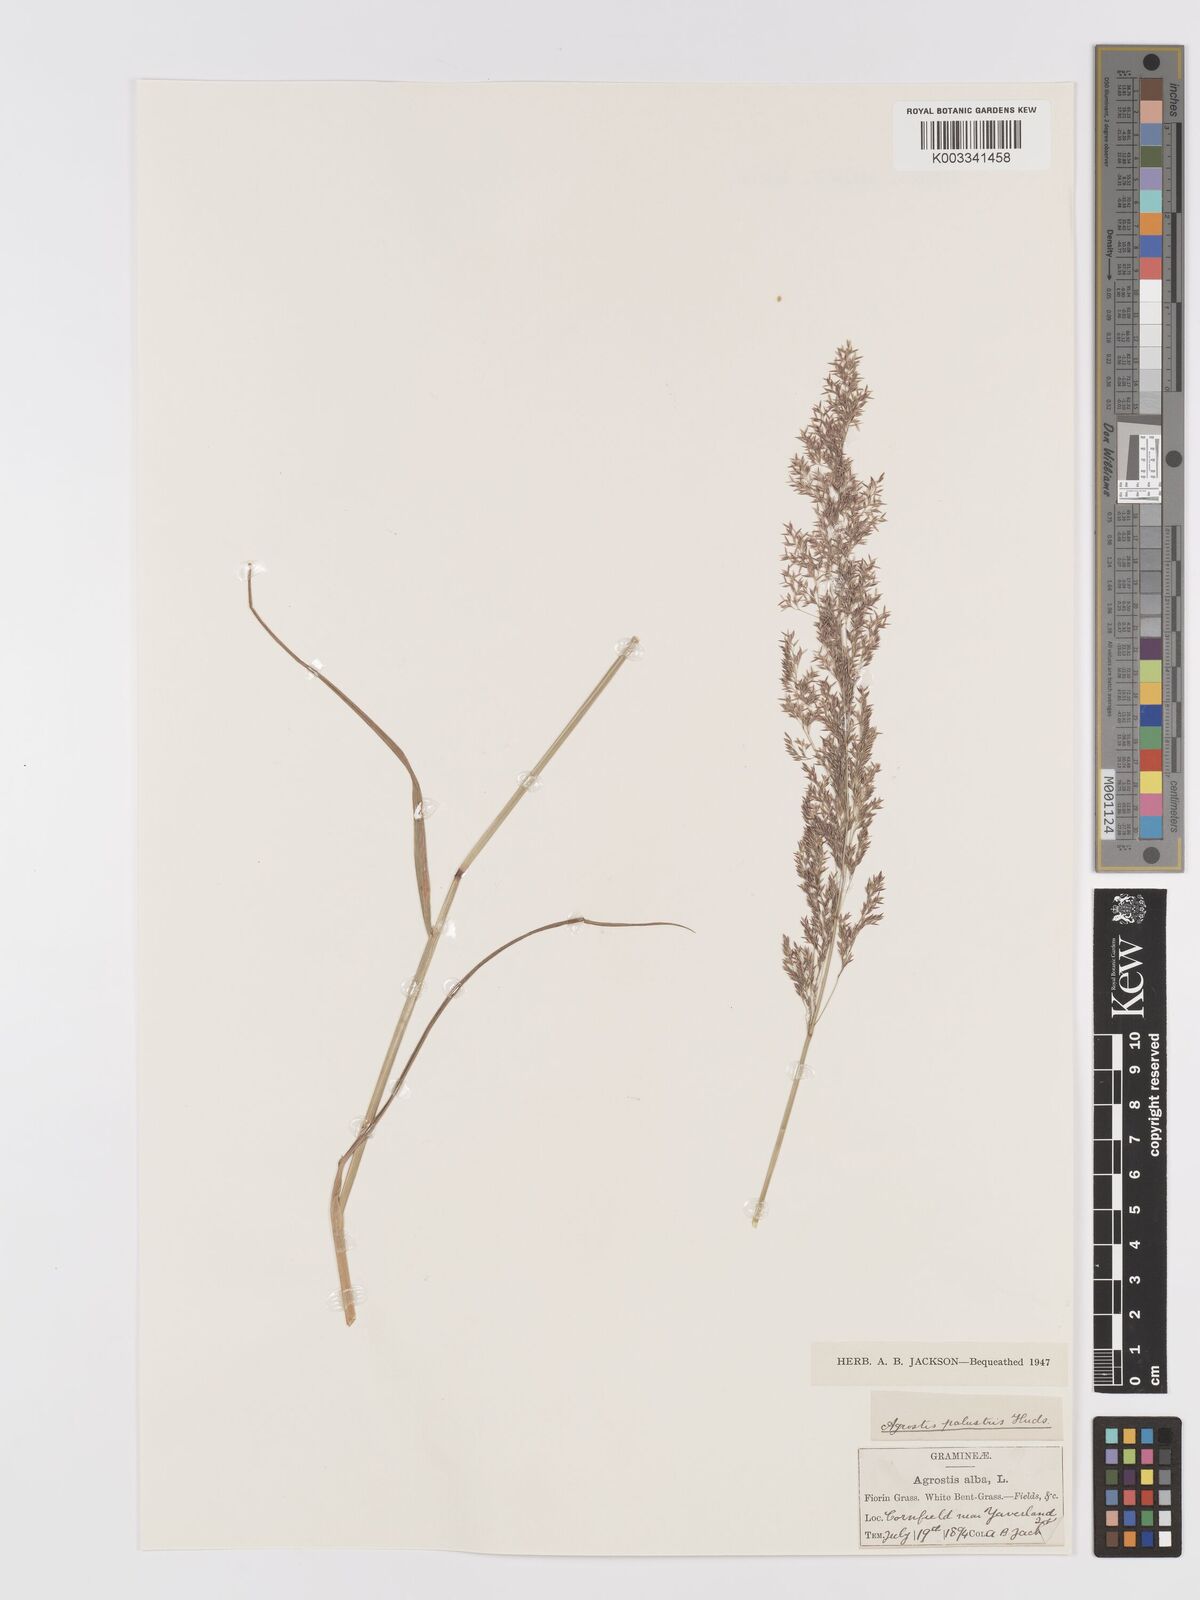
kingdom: Plantae
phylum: Tracheophyta
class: Liliopsida
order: Poales
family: Poaceae
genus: Agrostis
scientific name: Agrostis stolonifera
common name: Creeping bentgrass
